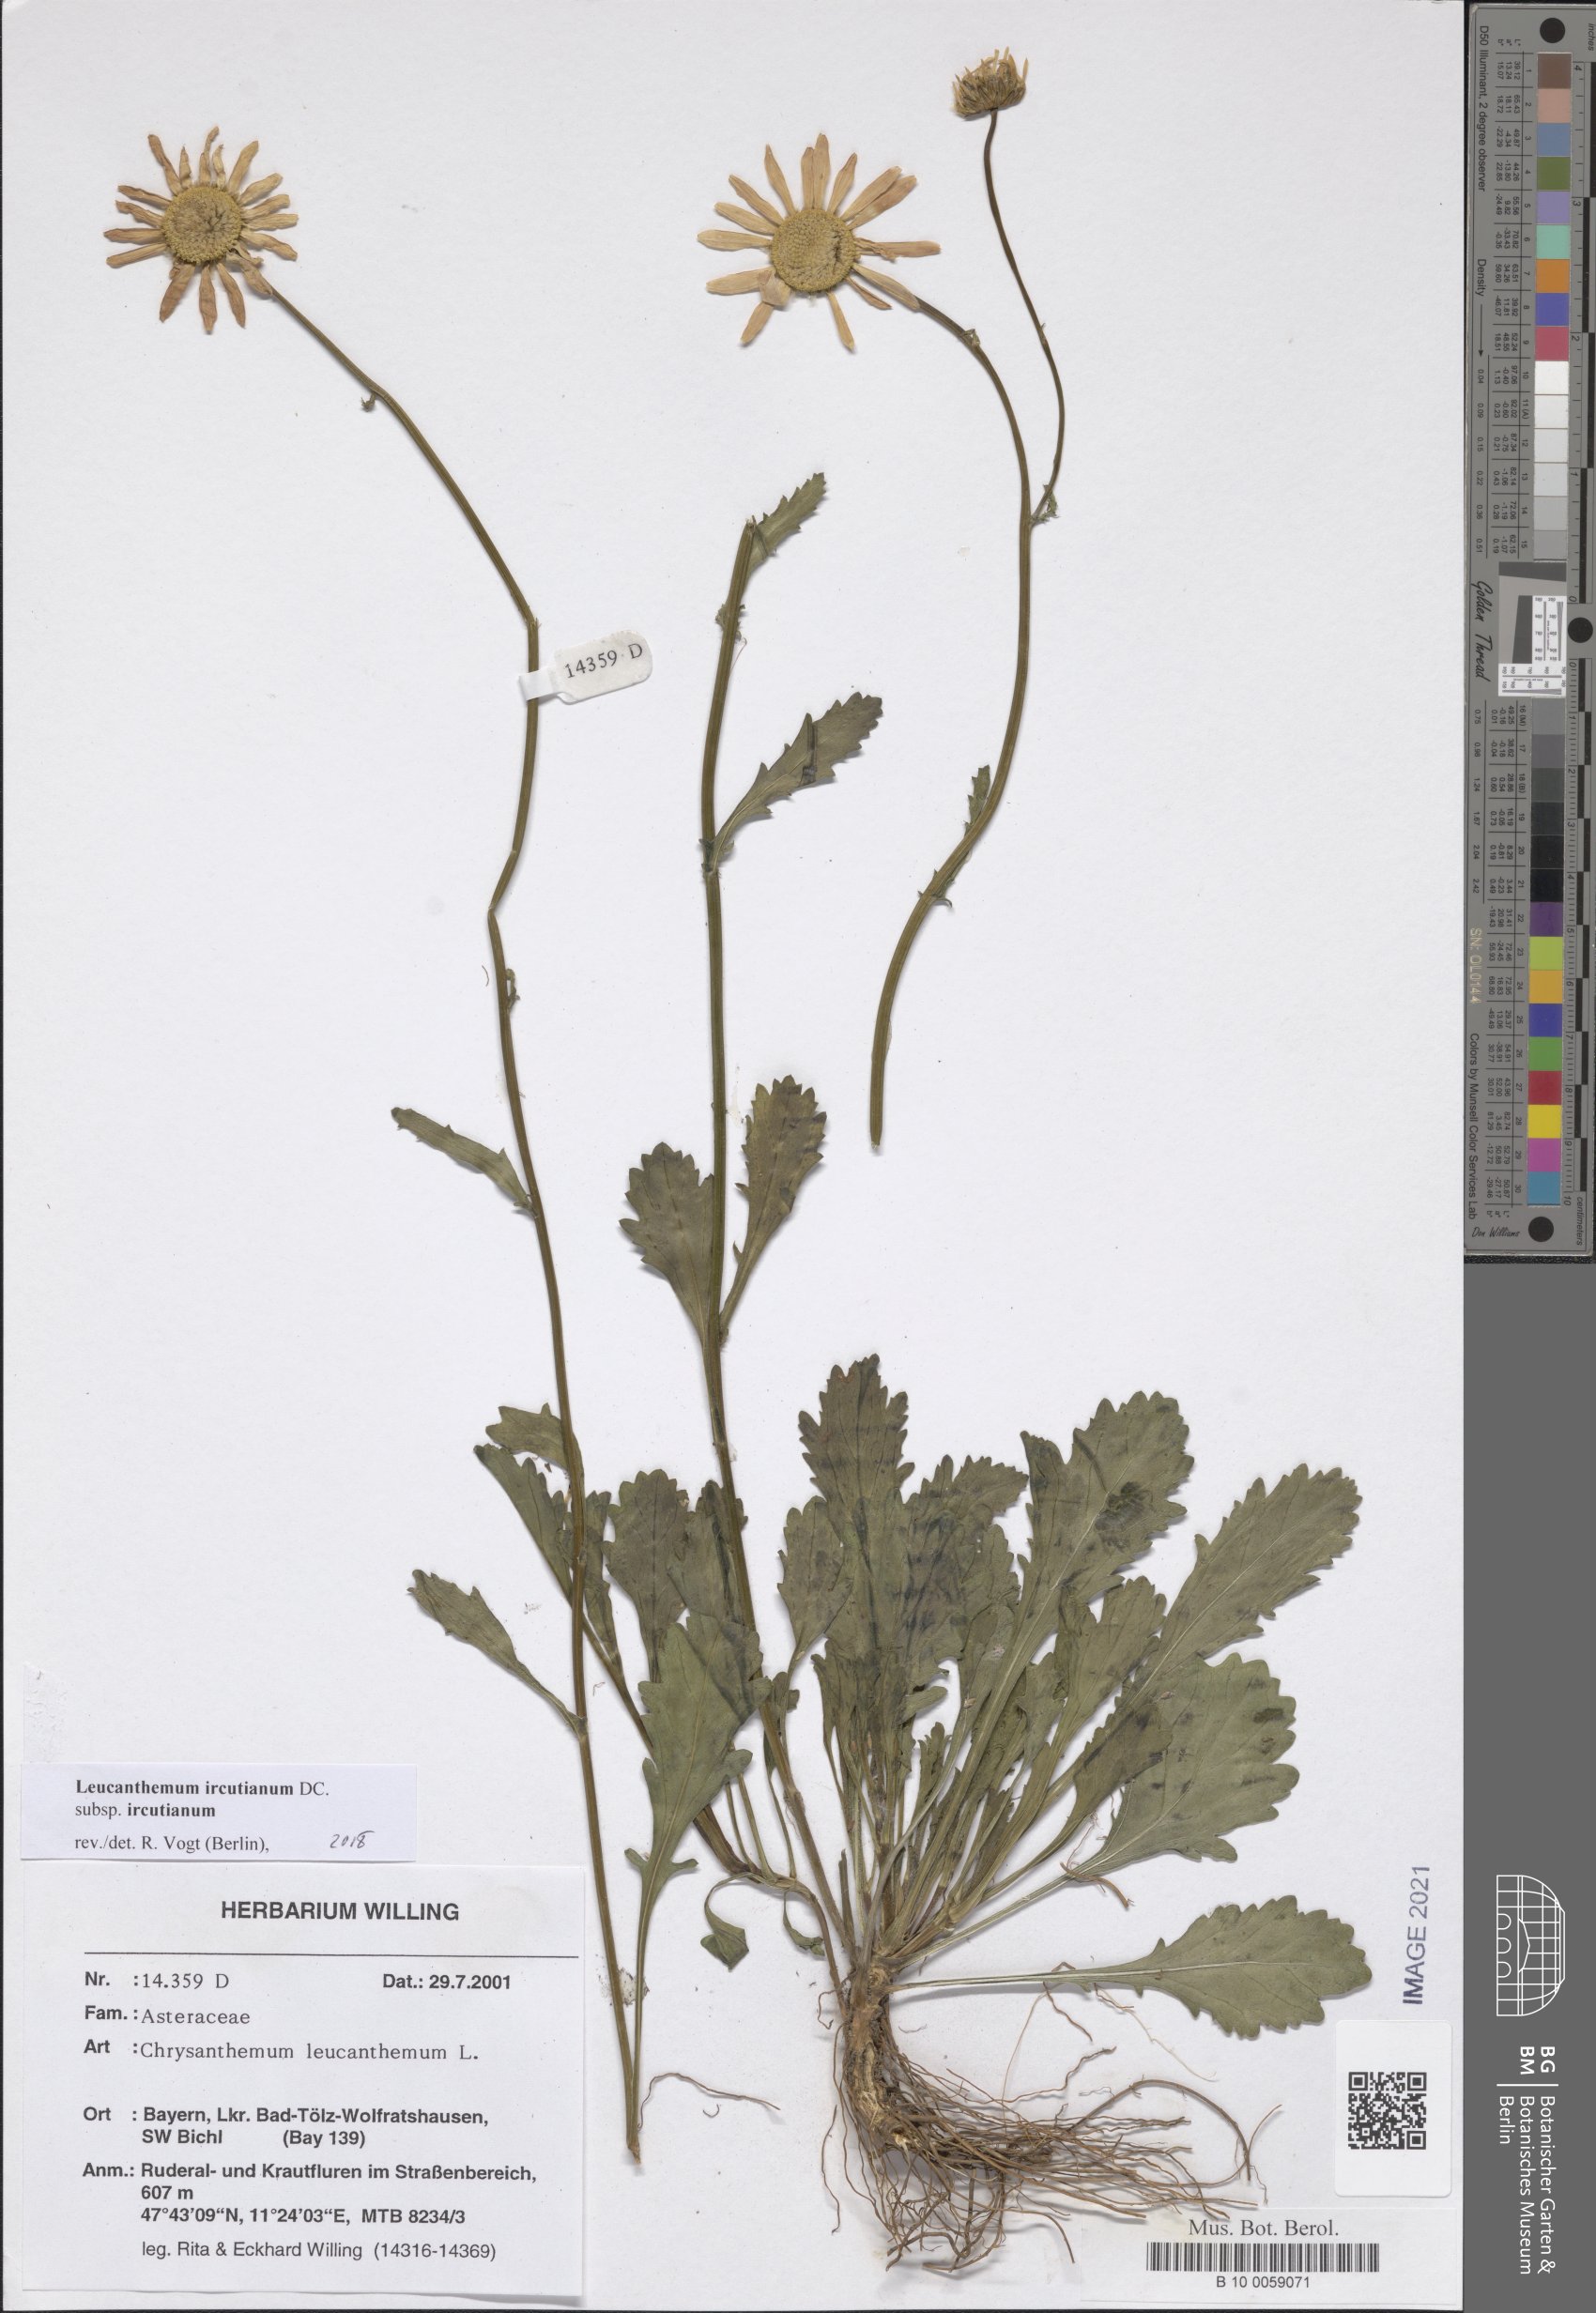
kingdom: Plantae
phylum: Tracheophyta
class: Magnoliopsida
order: Asterales
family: Asteraceae
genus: Leucanthemum
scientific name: Leucanthemum ircutianum
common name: Daisy
